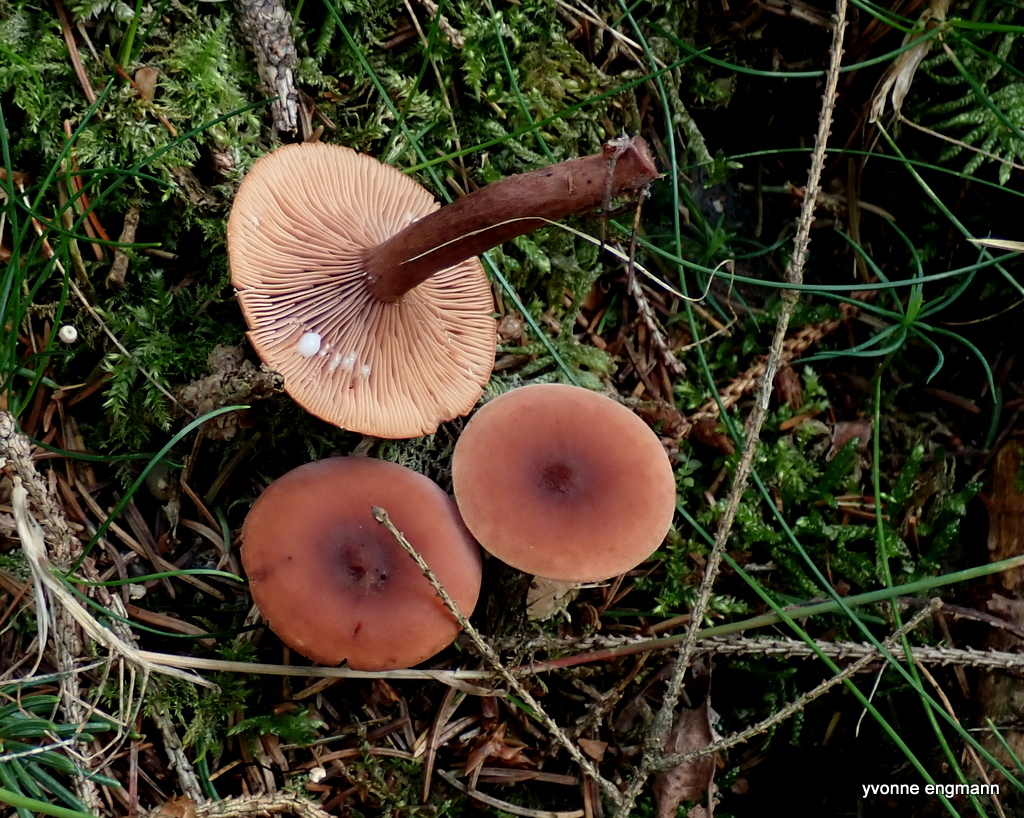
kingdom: Fungi
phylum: Basidiomycota
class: Agaricomycetes
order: Russulales
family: Russulaceae
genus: Lactarius
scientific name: Lactarius camphoratus
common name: kamfer-mælkehat
